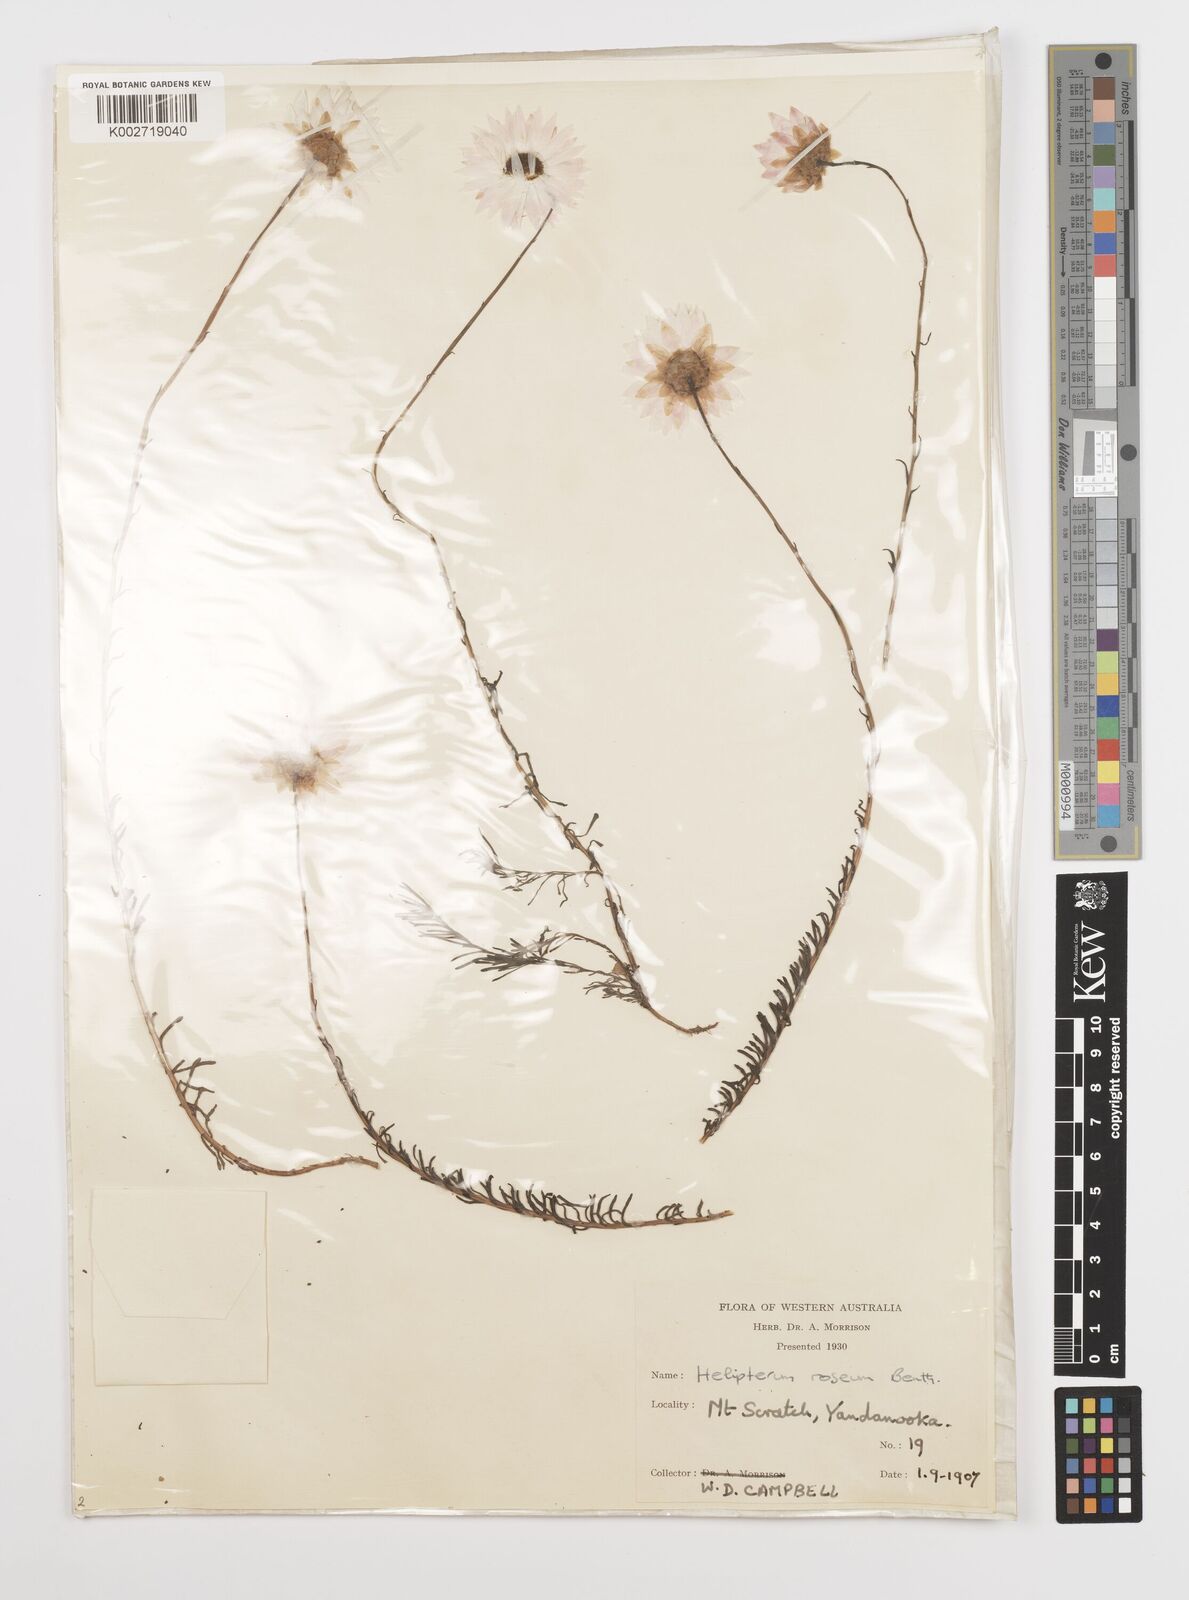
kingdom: Plantae
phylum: Tracheophyta
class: Magnoliopsida
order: Asterales
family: Asteraceae
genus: Rhodanthe
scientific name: Rhodanthe chlorocephala
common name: Rosy sunray
